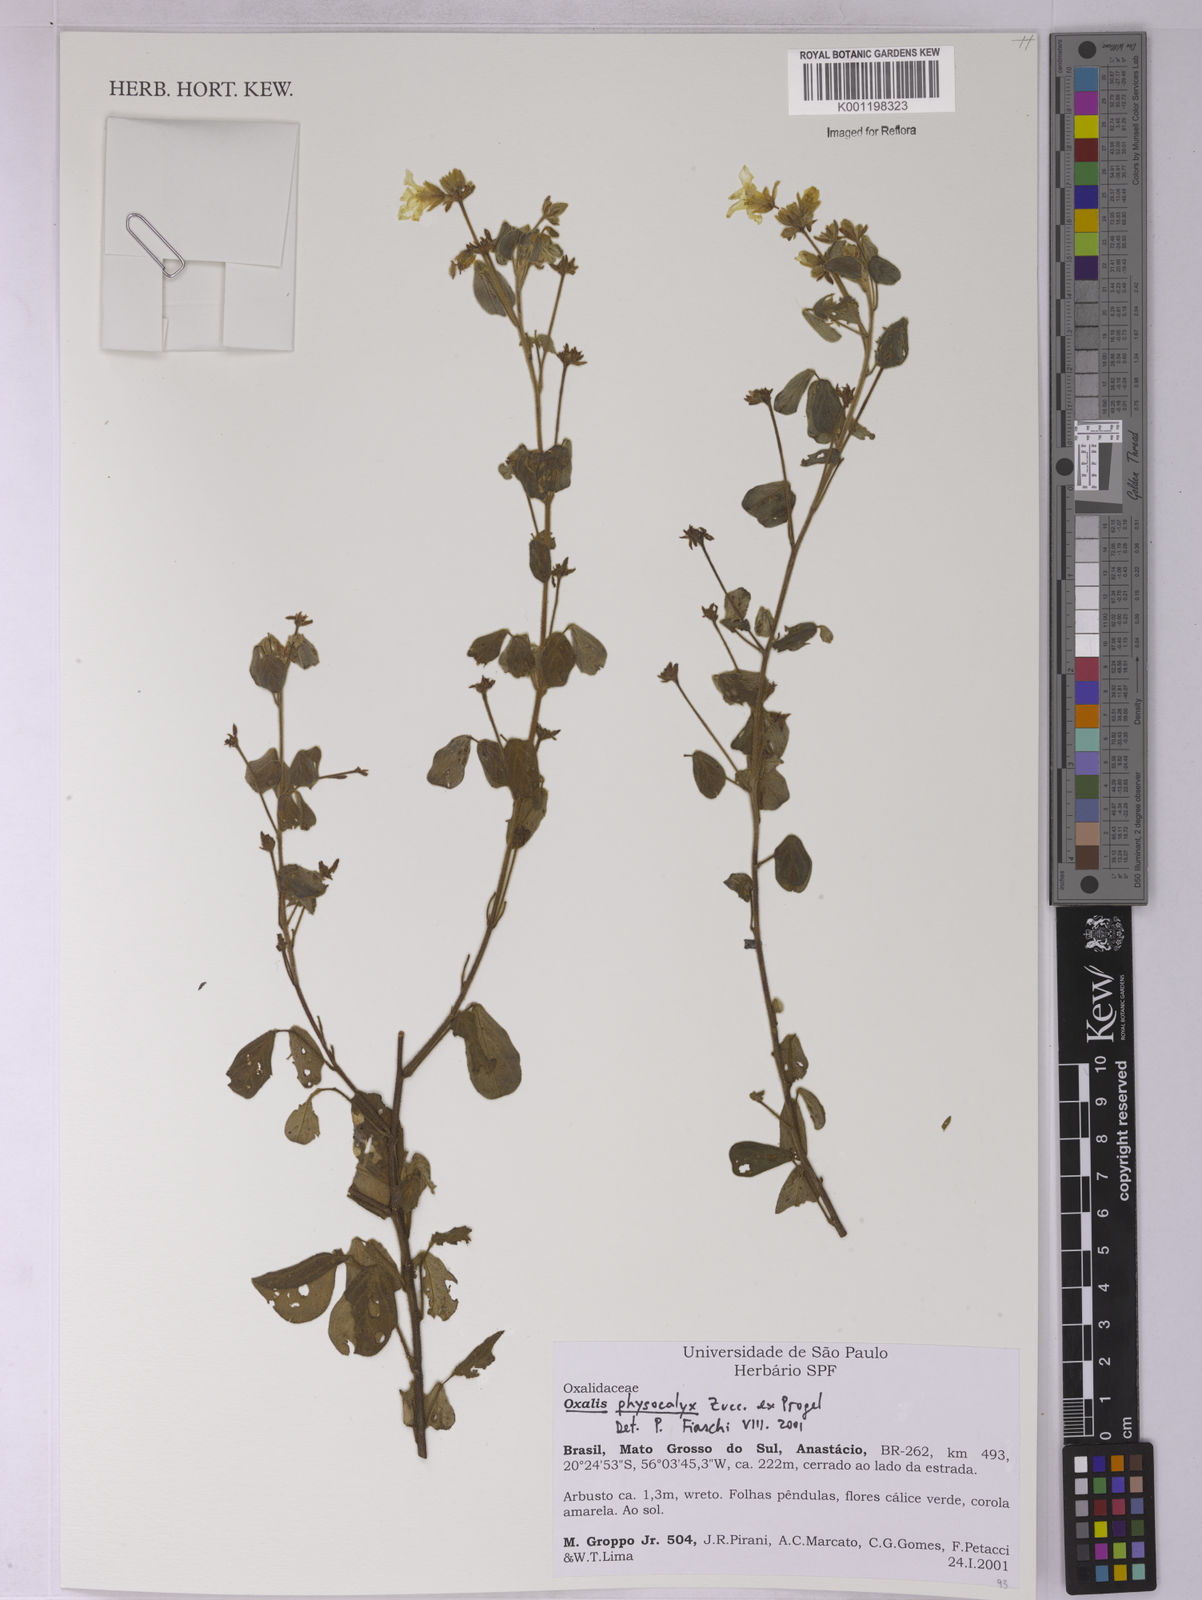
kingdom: Plantae
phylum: Tracheophyta
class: Magnoliopsida
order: Oxalidales
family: Oxalidaceae
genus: Oxalis
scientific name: Oxalis physocalyx
